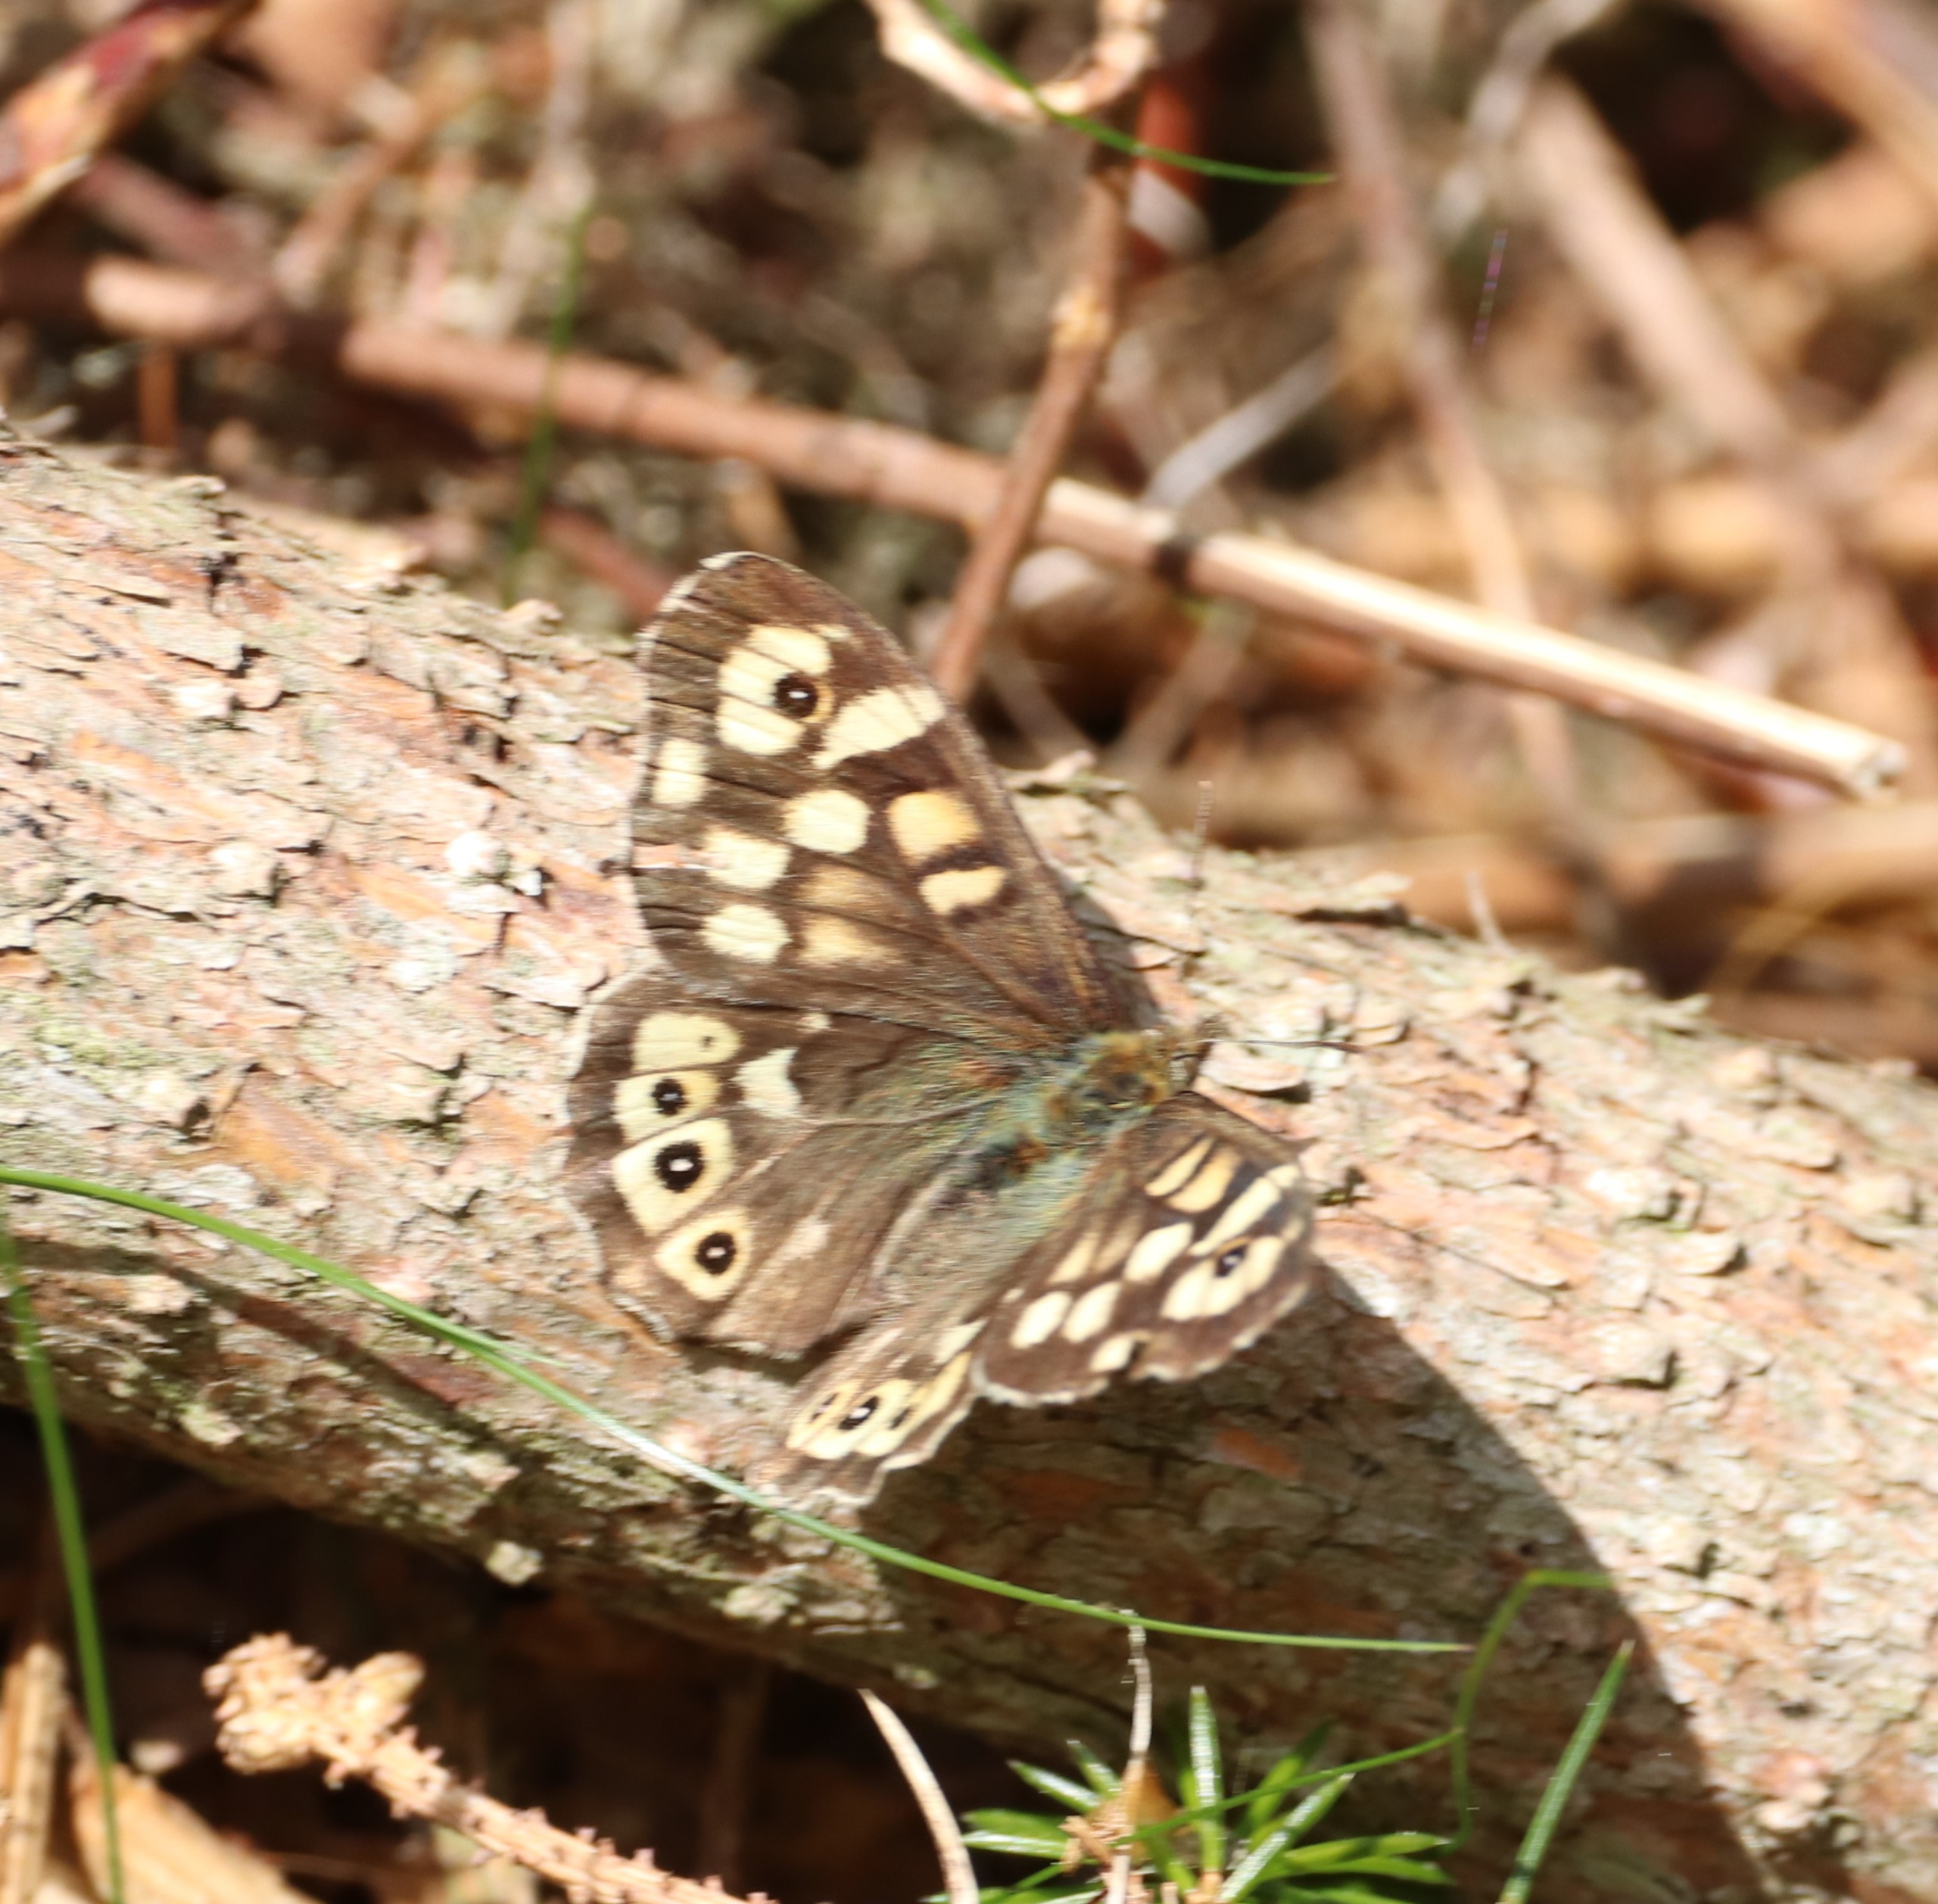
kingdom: Animalia
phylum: Arthropoda
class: Insecta
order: Lepidoptera
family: Nymphalidae
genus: Pararge
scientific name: Pararge aegeria
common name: Skovrandøje
